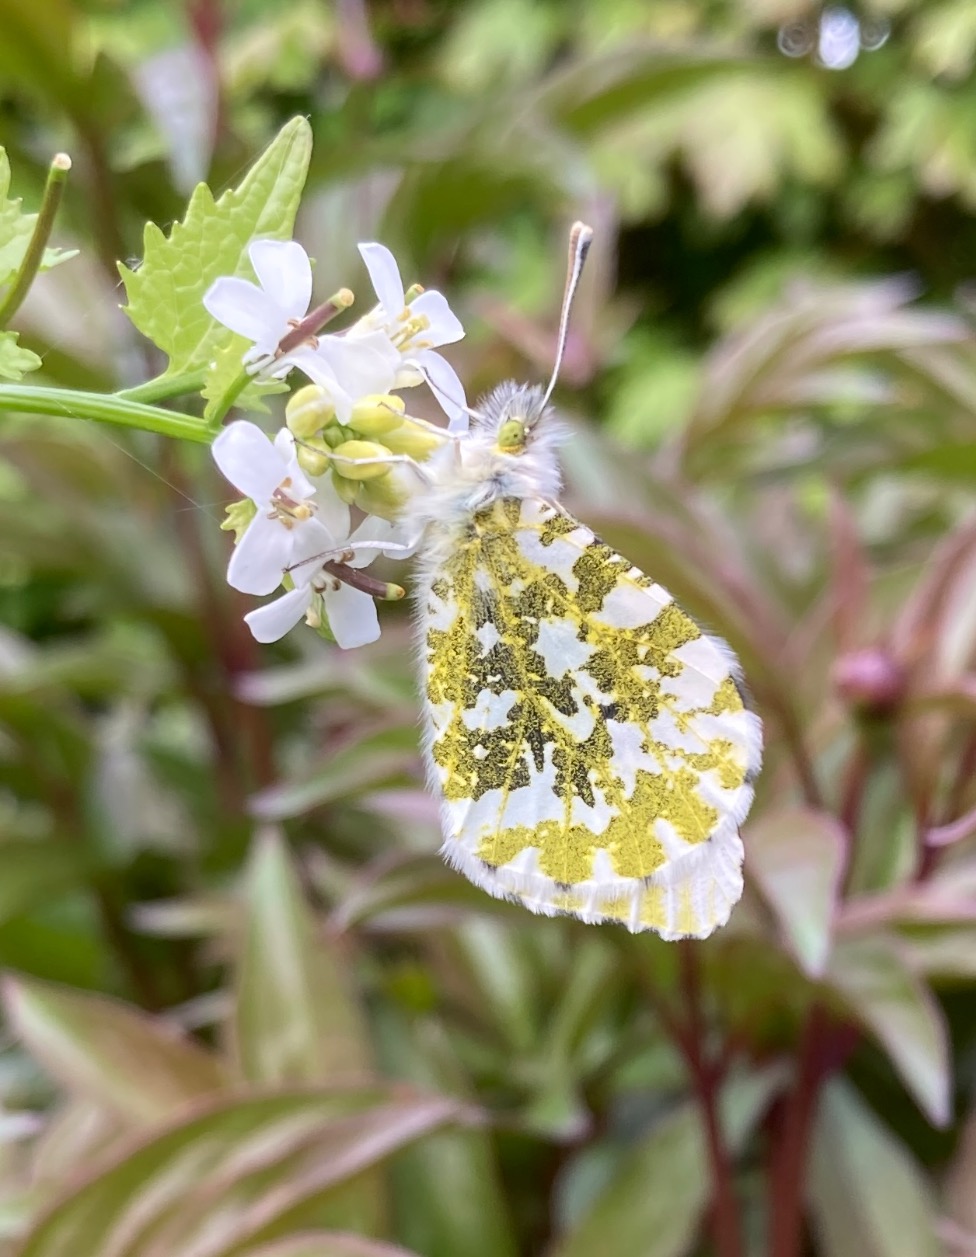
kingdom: Animalia
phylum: Arthropoda
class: Insecta
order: Lepidoptera
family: Pieridae
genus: Anthocharis
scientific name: Anthocharis cardamines
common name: Aurora
